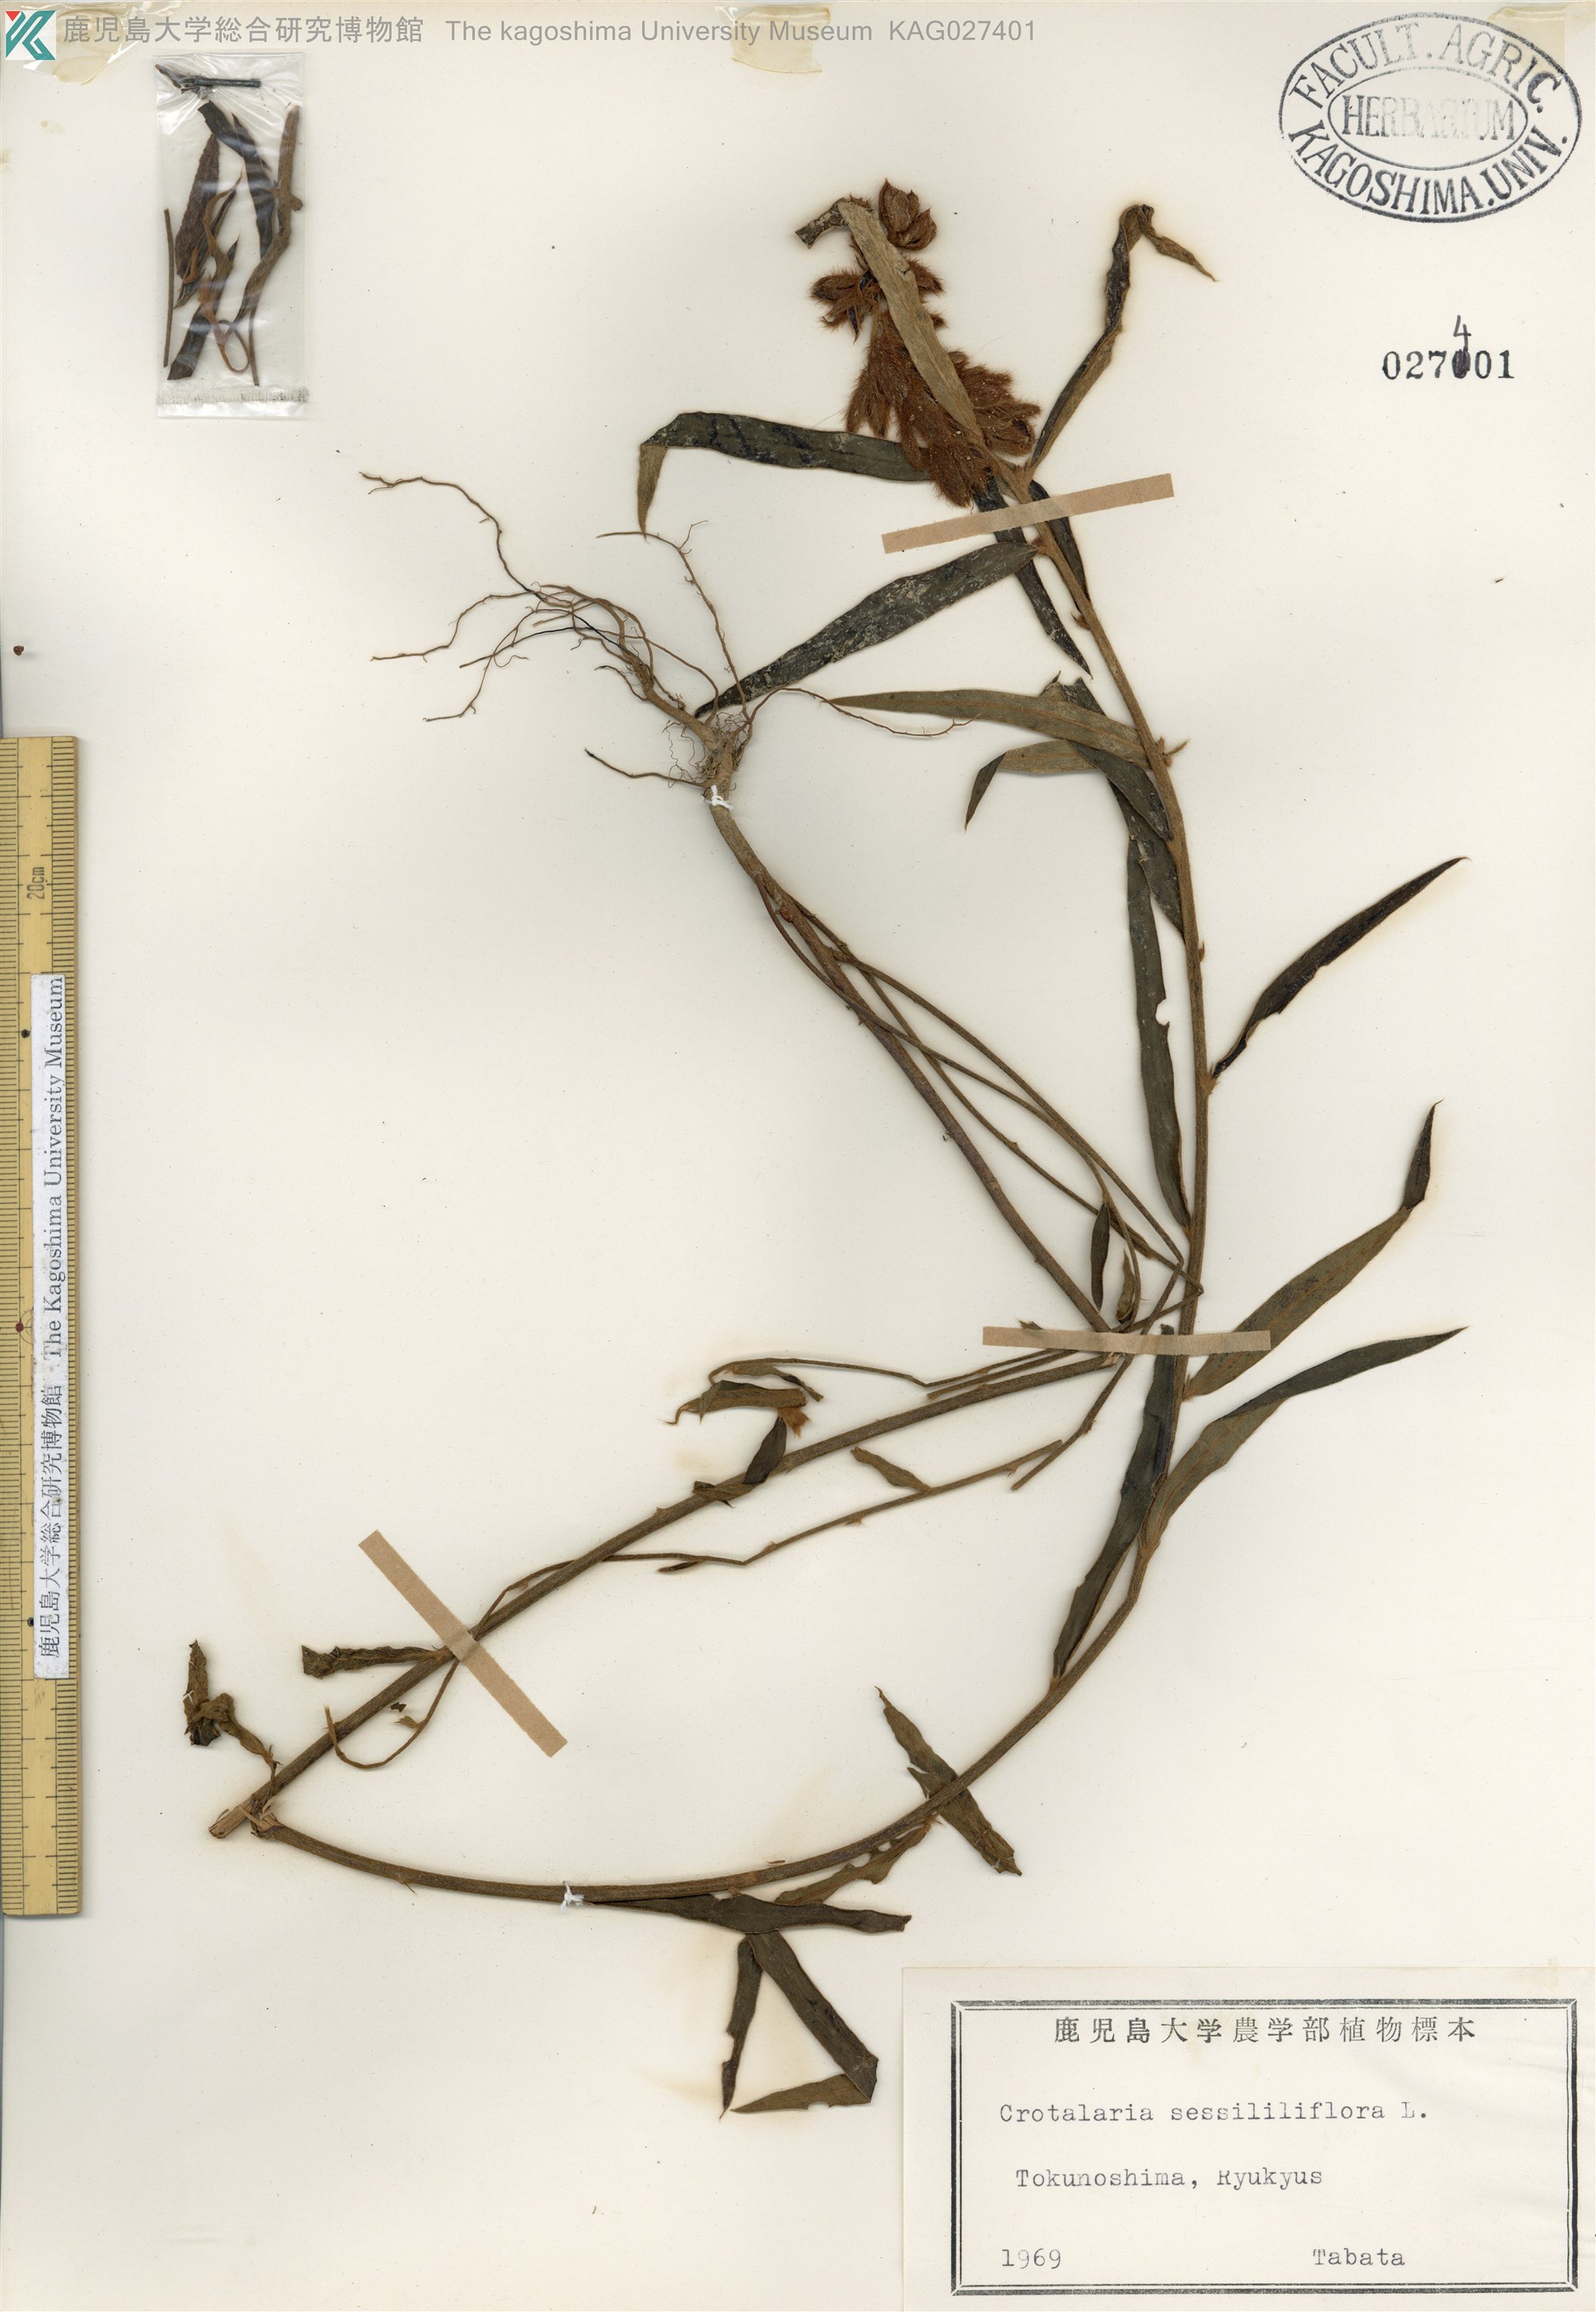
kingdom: Plantae
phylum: Tracheophyta
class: Magnoliopsida
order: Fabales
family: Fabaceae
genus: Crotalaria
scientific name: Crotalaria sessiliflora
